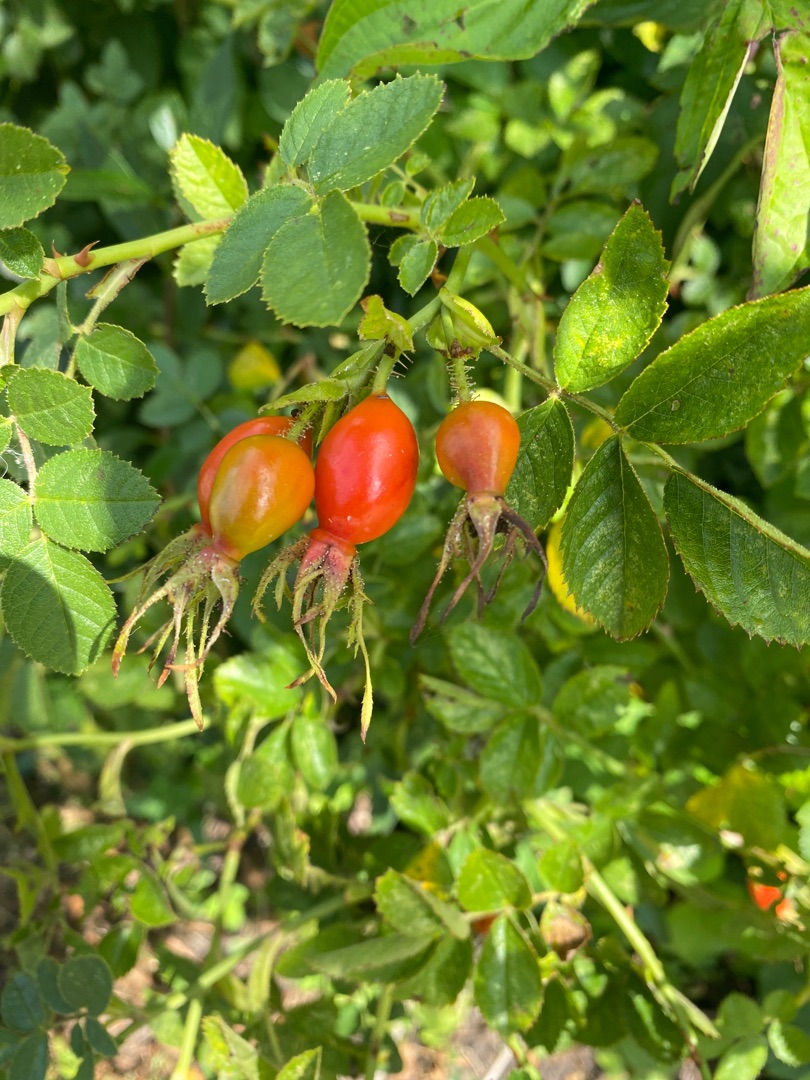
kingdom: Plantae
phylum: Tracheophyta
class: Magnoliopsida
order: Rosales
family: Rosaceae
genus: Rosa
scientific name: Rosa rubiginosa
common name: Æble-rose
